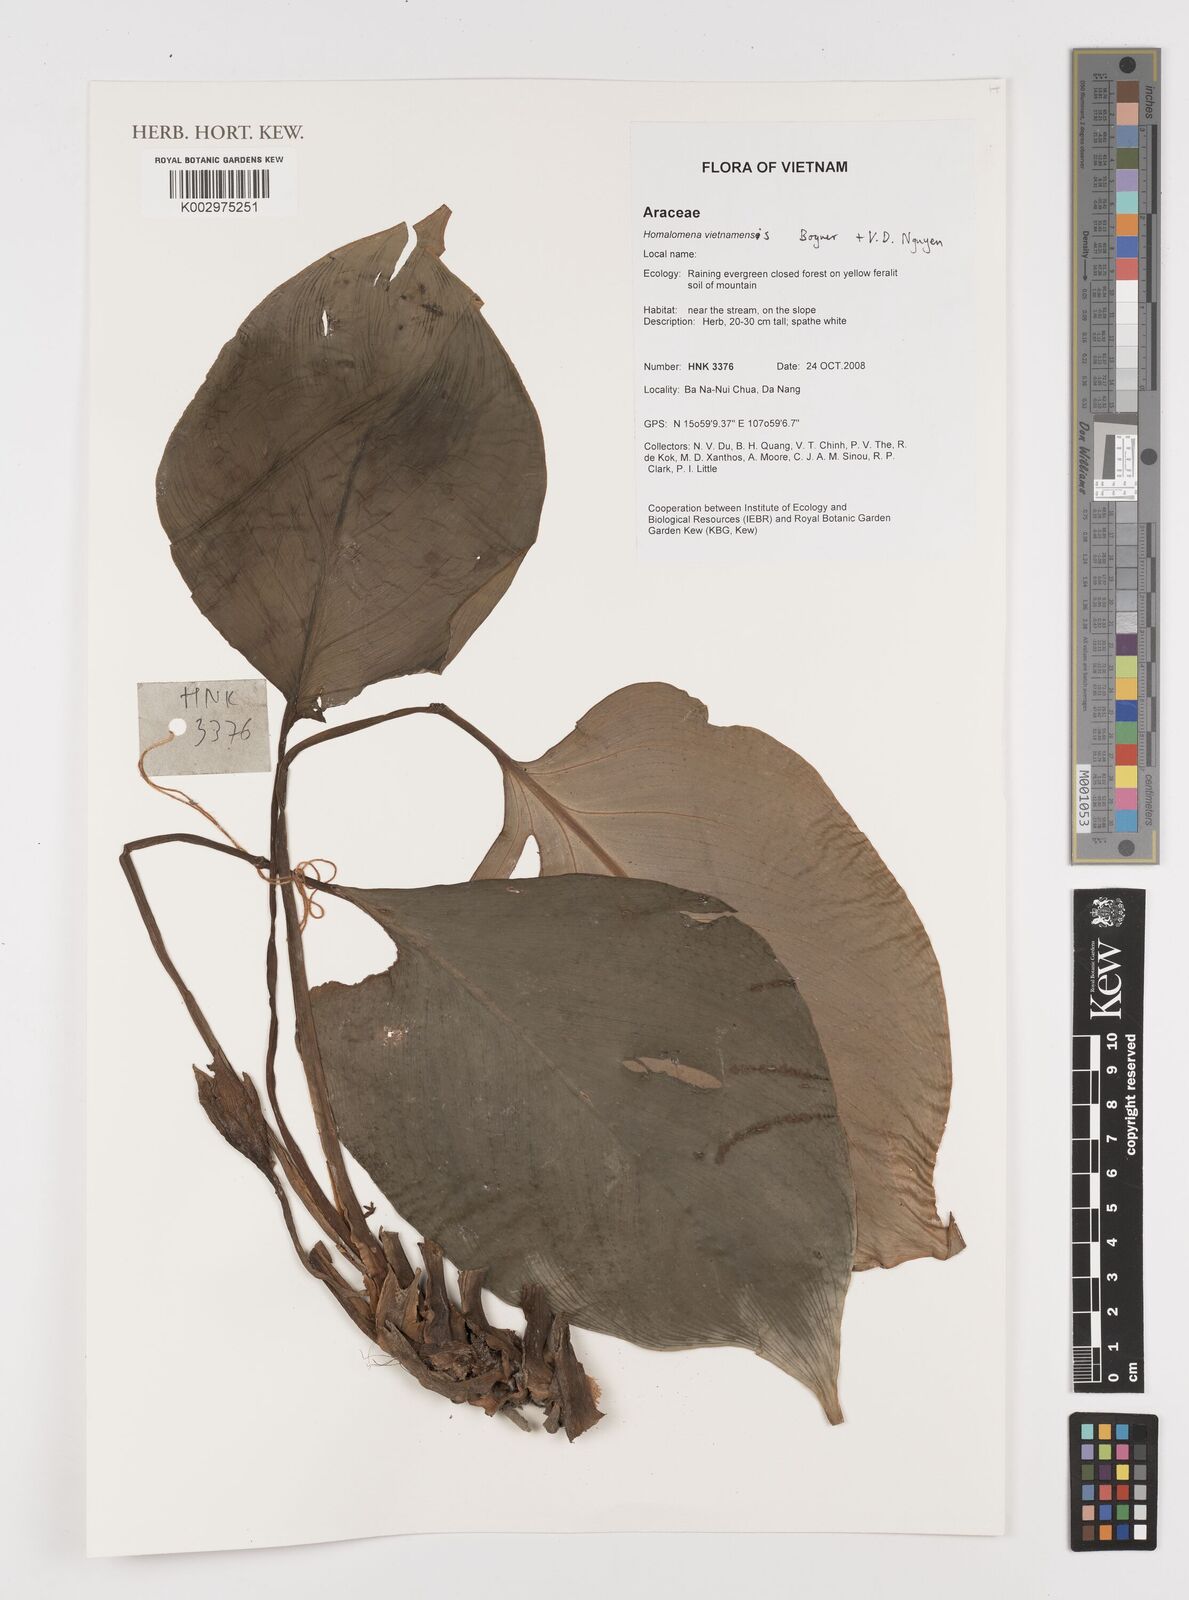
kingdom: Plantae
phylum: Tracheophyta
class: Liliopsida
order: Alismatales
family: Araceae
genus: Homalomena
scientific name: Homalomena vietnamensis
